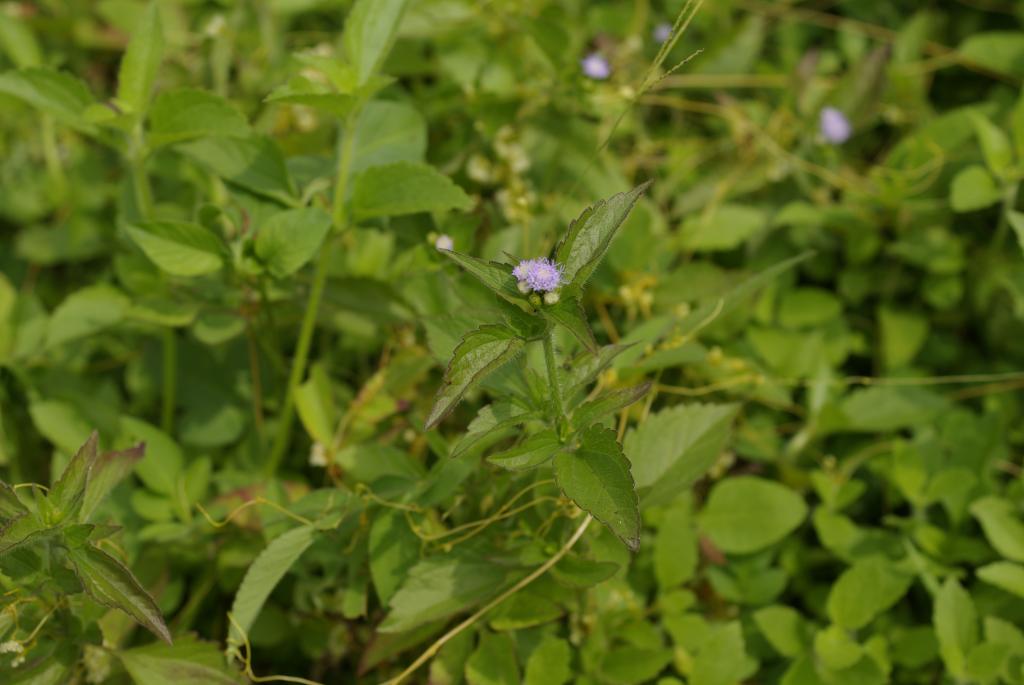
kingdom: Plantae
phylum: Tracheophyta
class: Magnoliopsida
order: Asterales
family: Asteraceae
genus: Praxelis
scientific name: Praxelis clematidea
